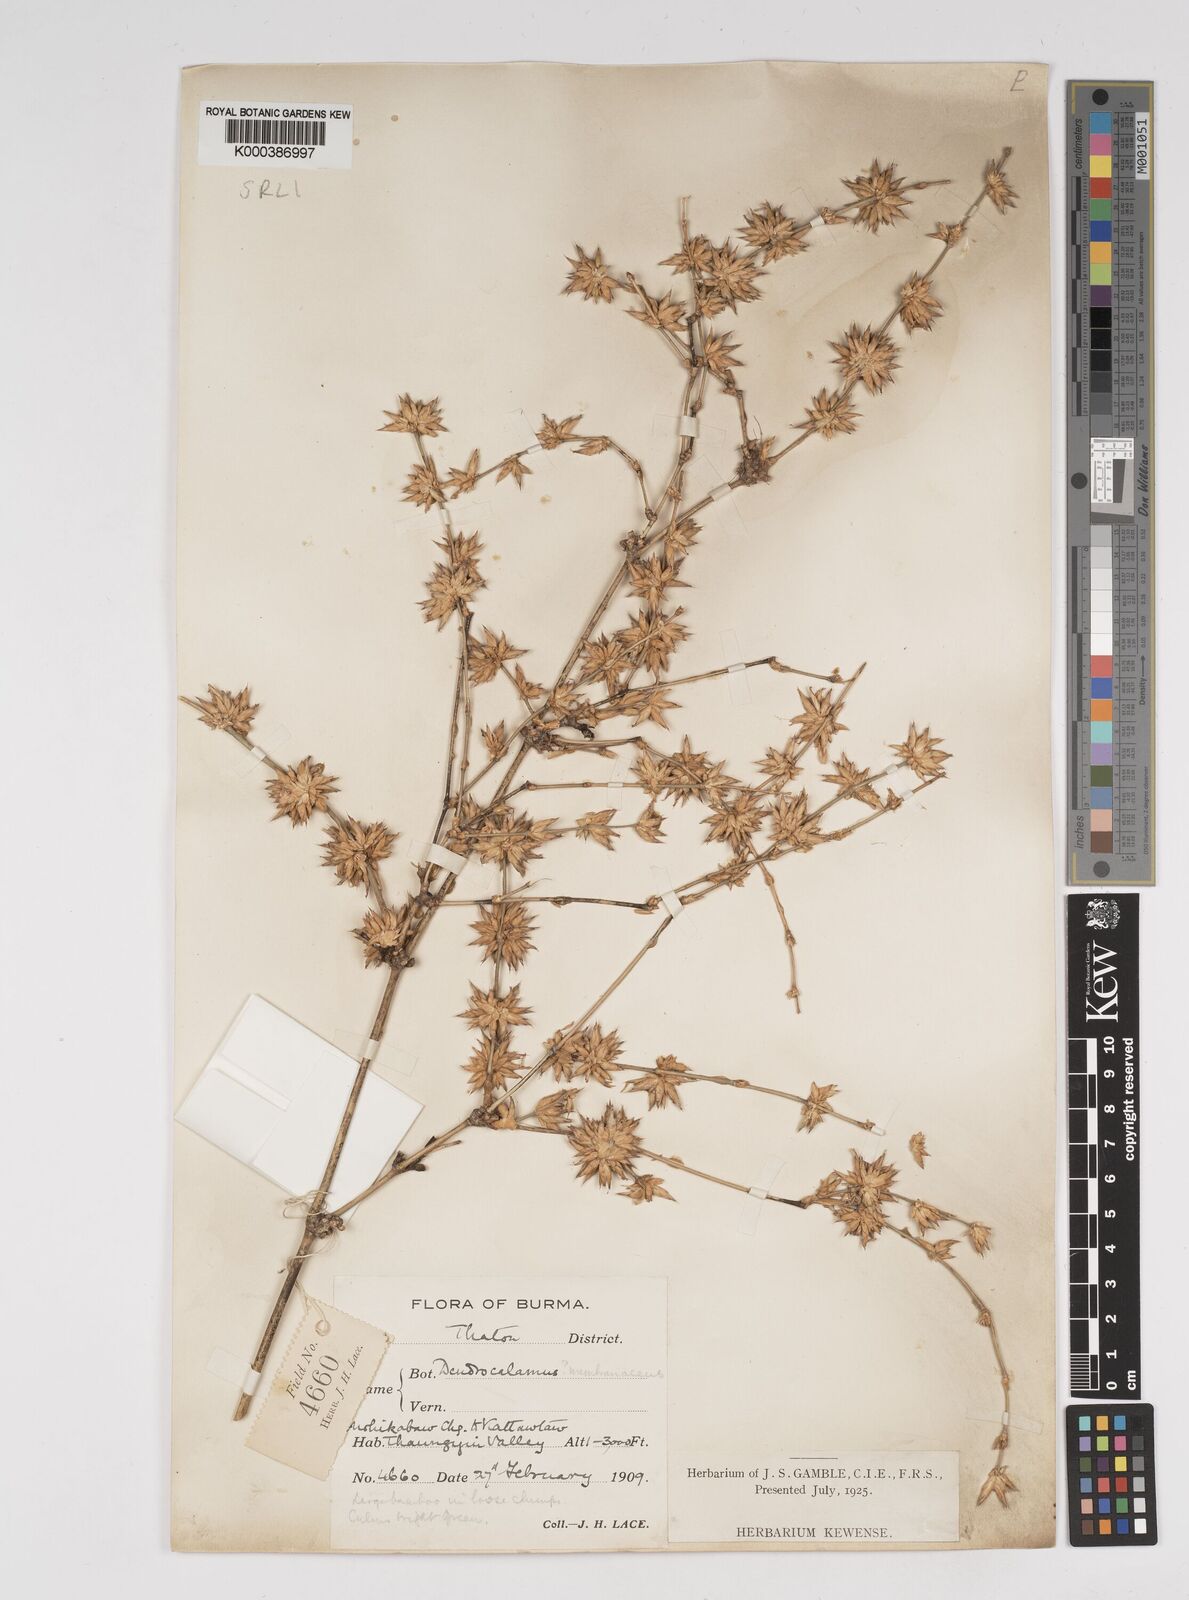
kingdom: Plantae
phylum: Tracheophyta
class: Liliopsida
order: Poales
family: Poaceae
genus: Dendrocalamus
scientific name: Dendrocalamus membranaceus
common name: White bamboo
